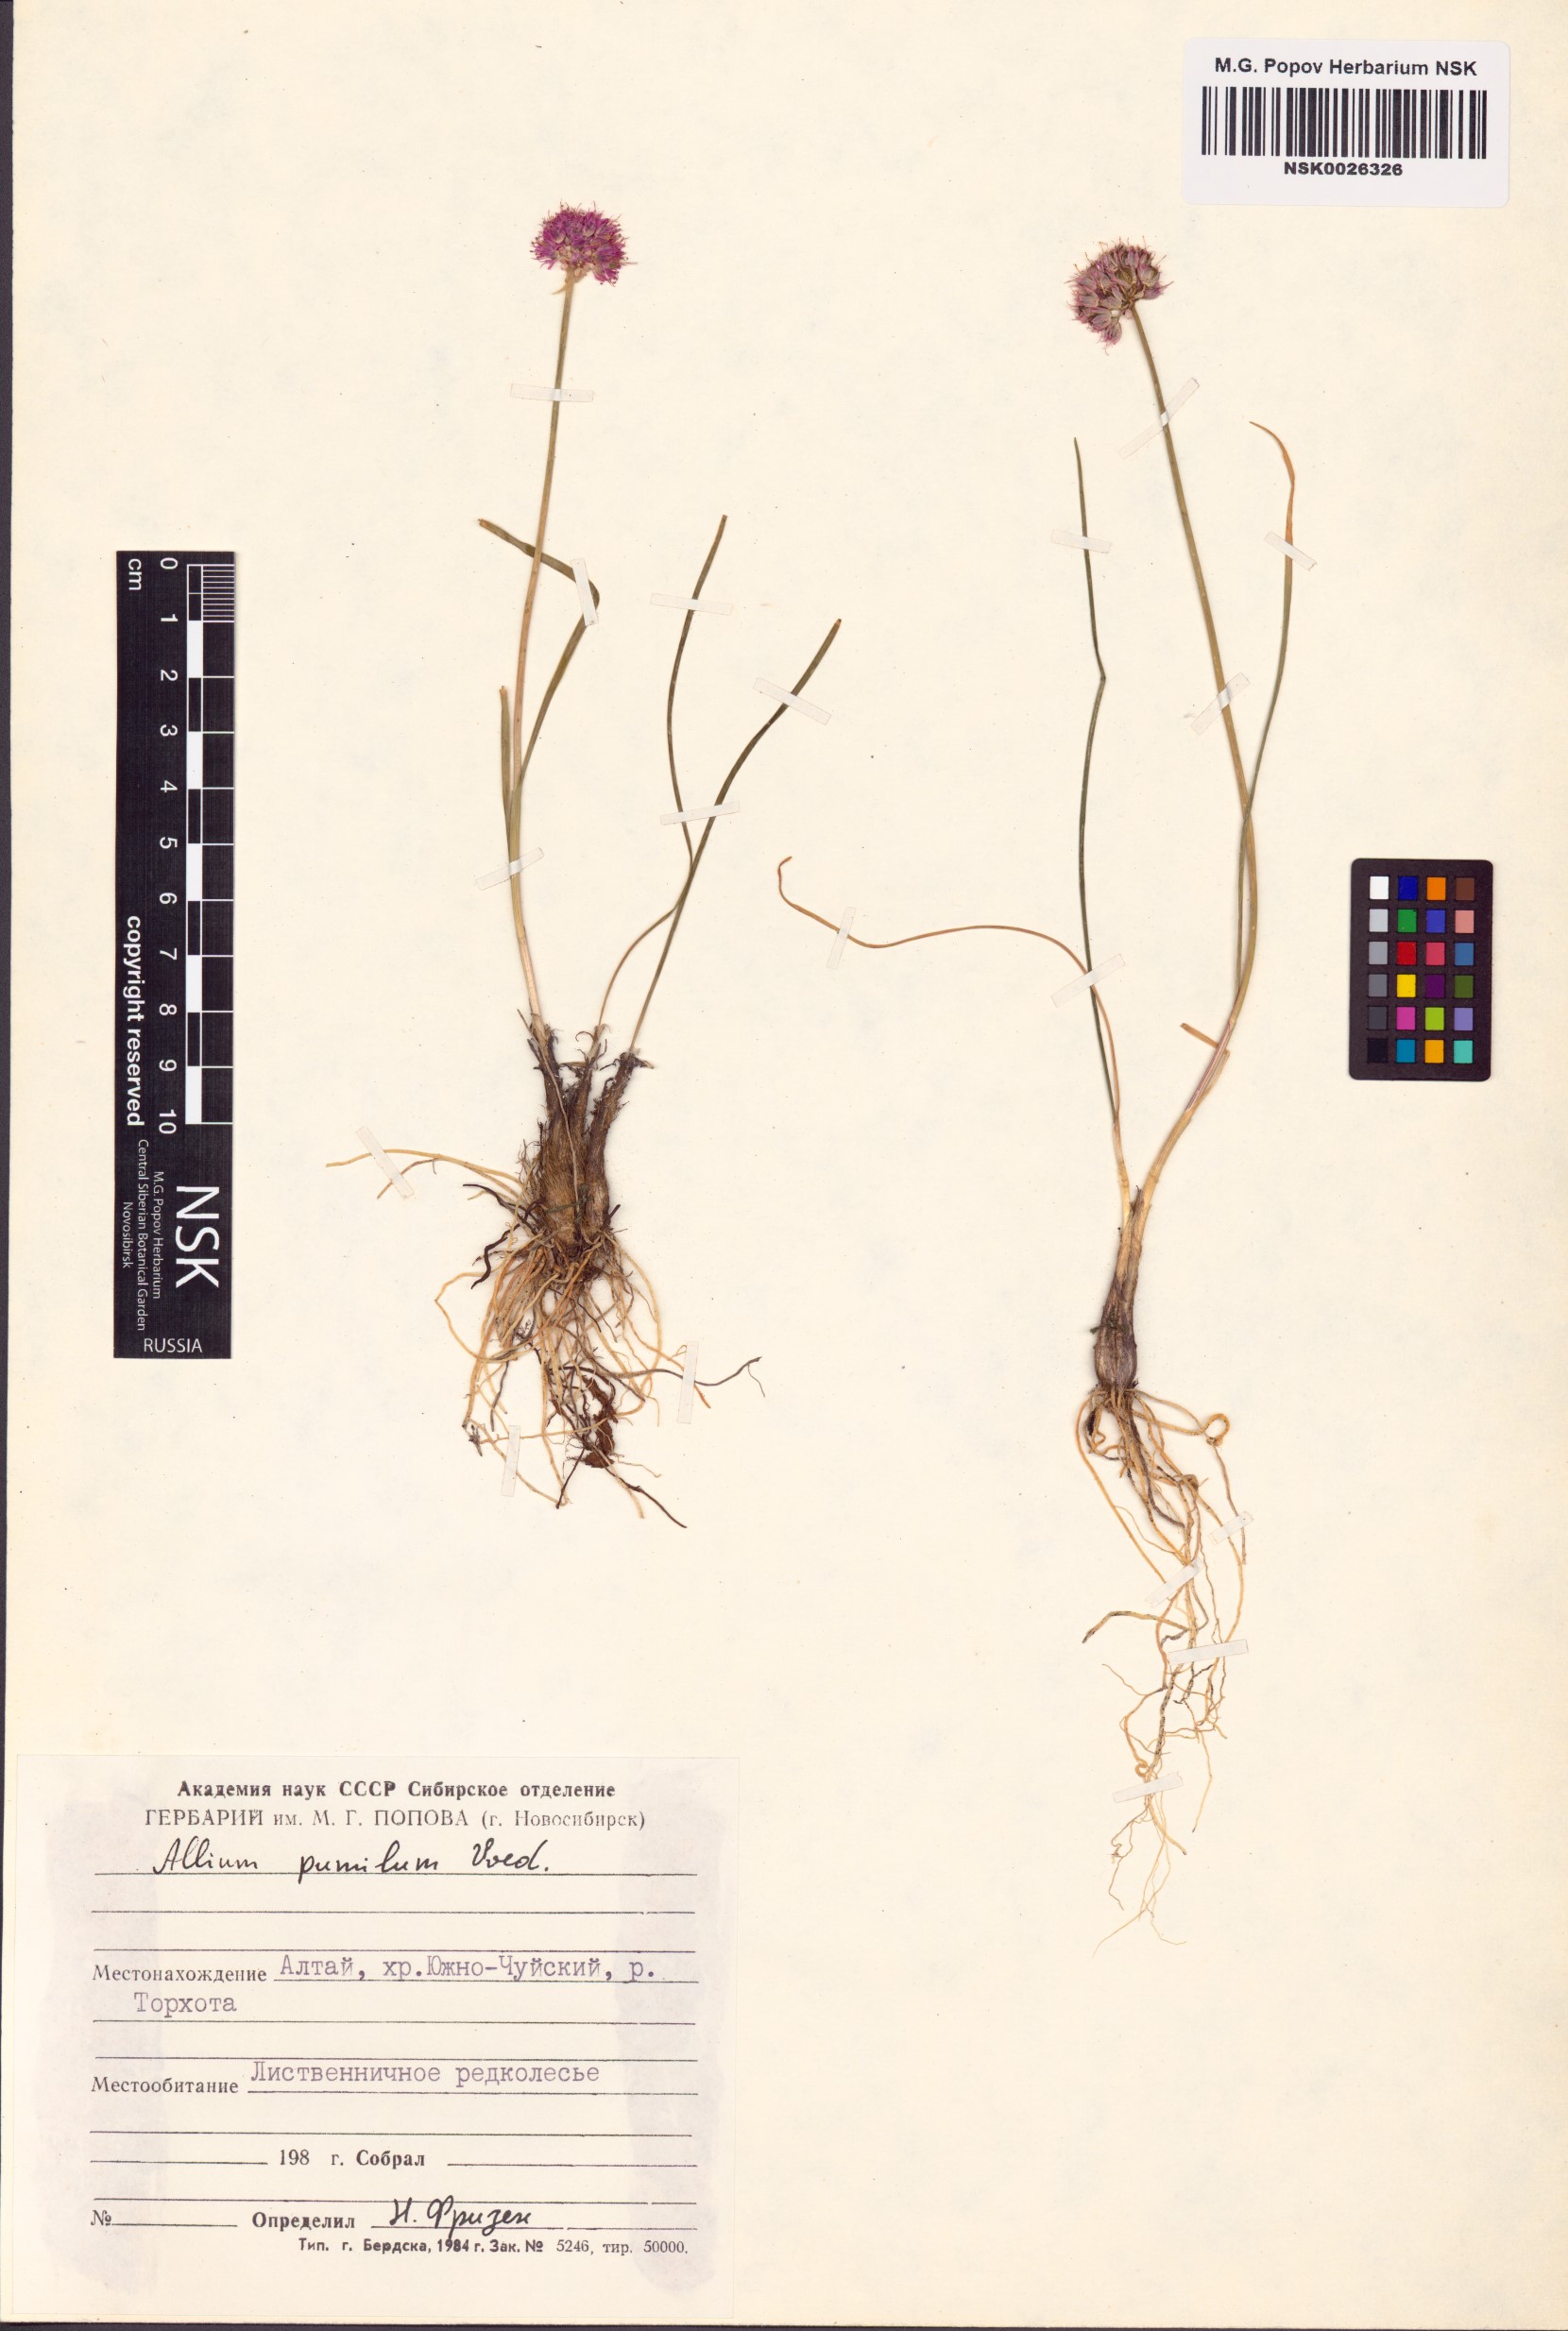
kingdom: Plantae
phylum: Tracheophyta
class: Liliopsida
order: Asparagales
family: Amaryllidaceae
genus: Allium
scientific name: Allium pumilum
